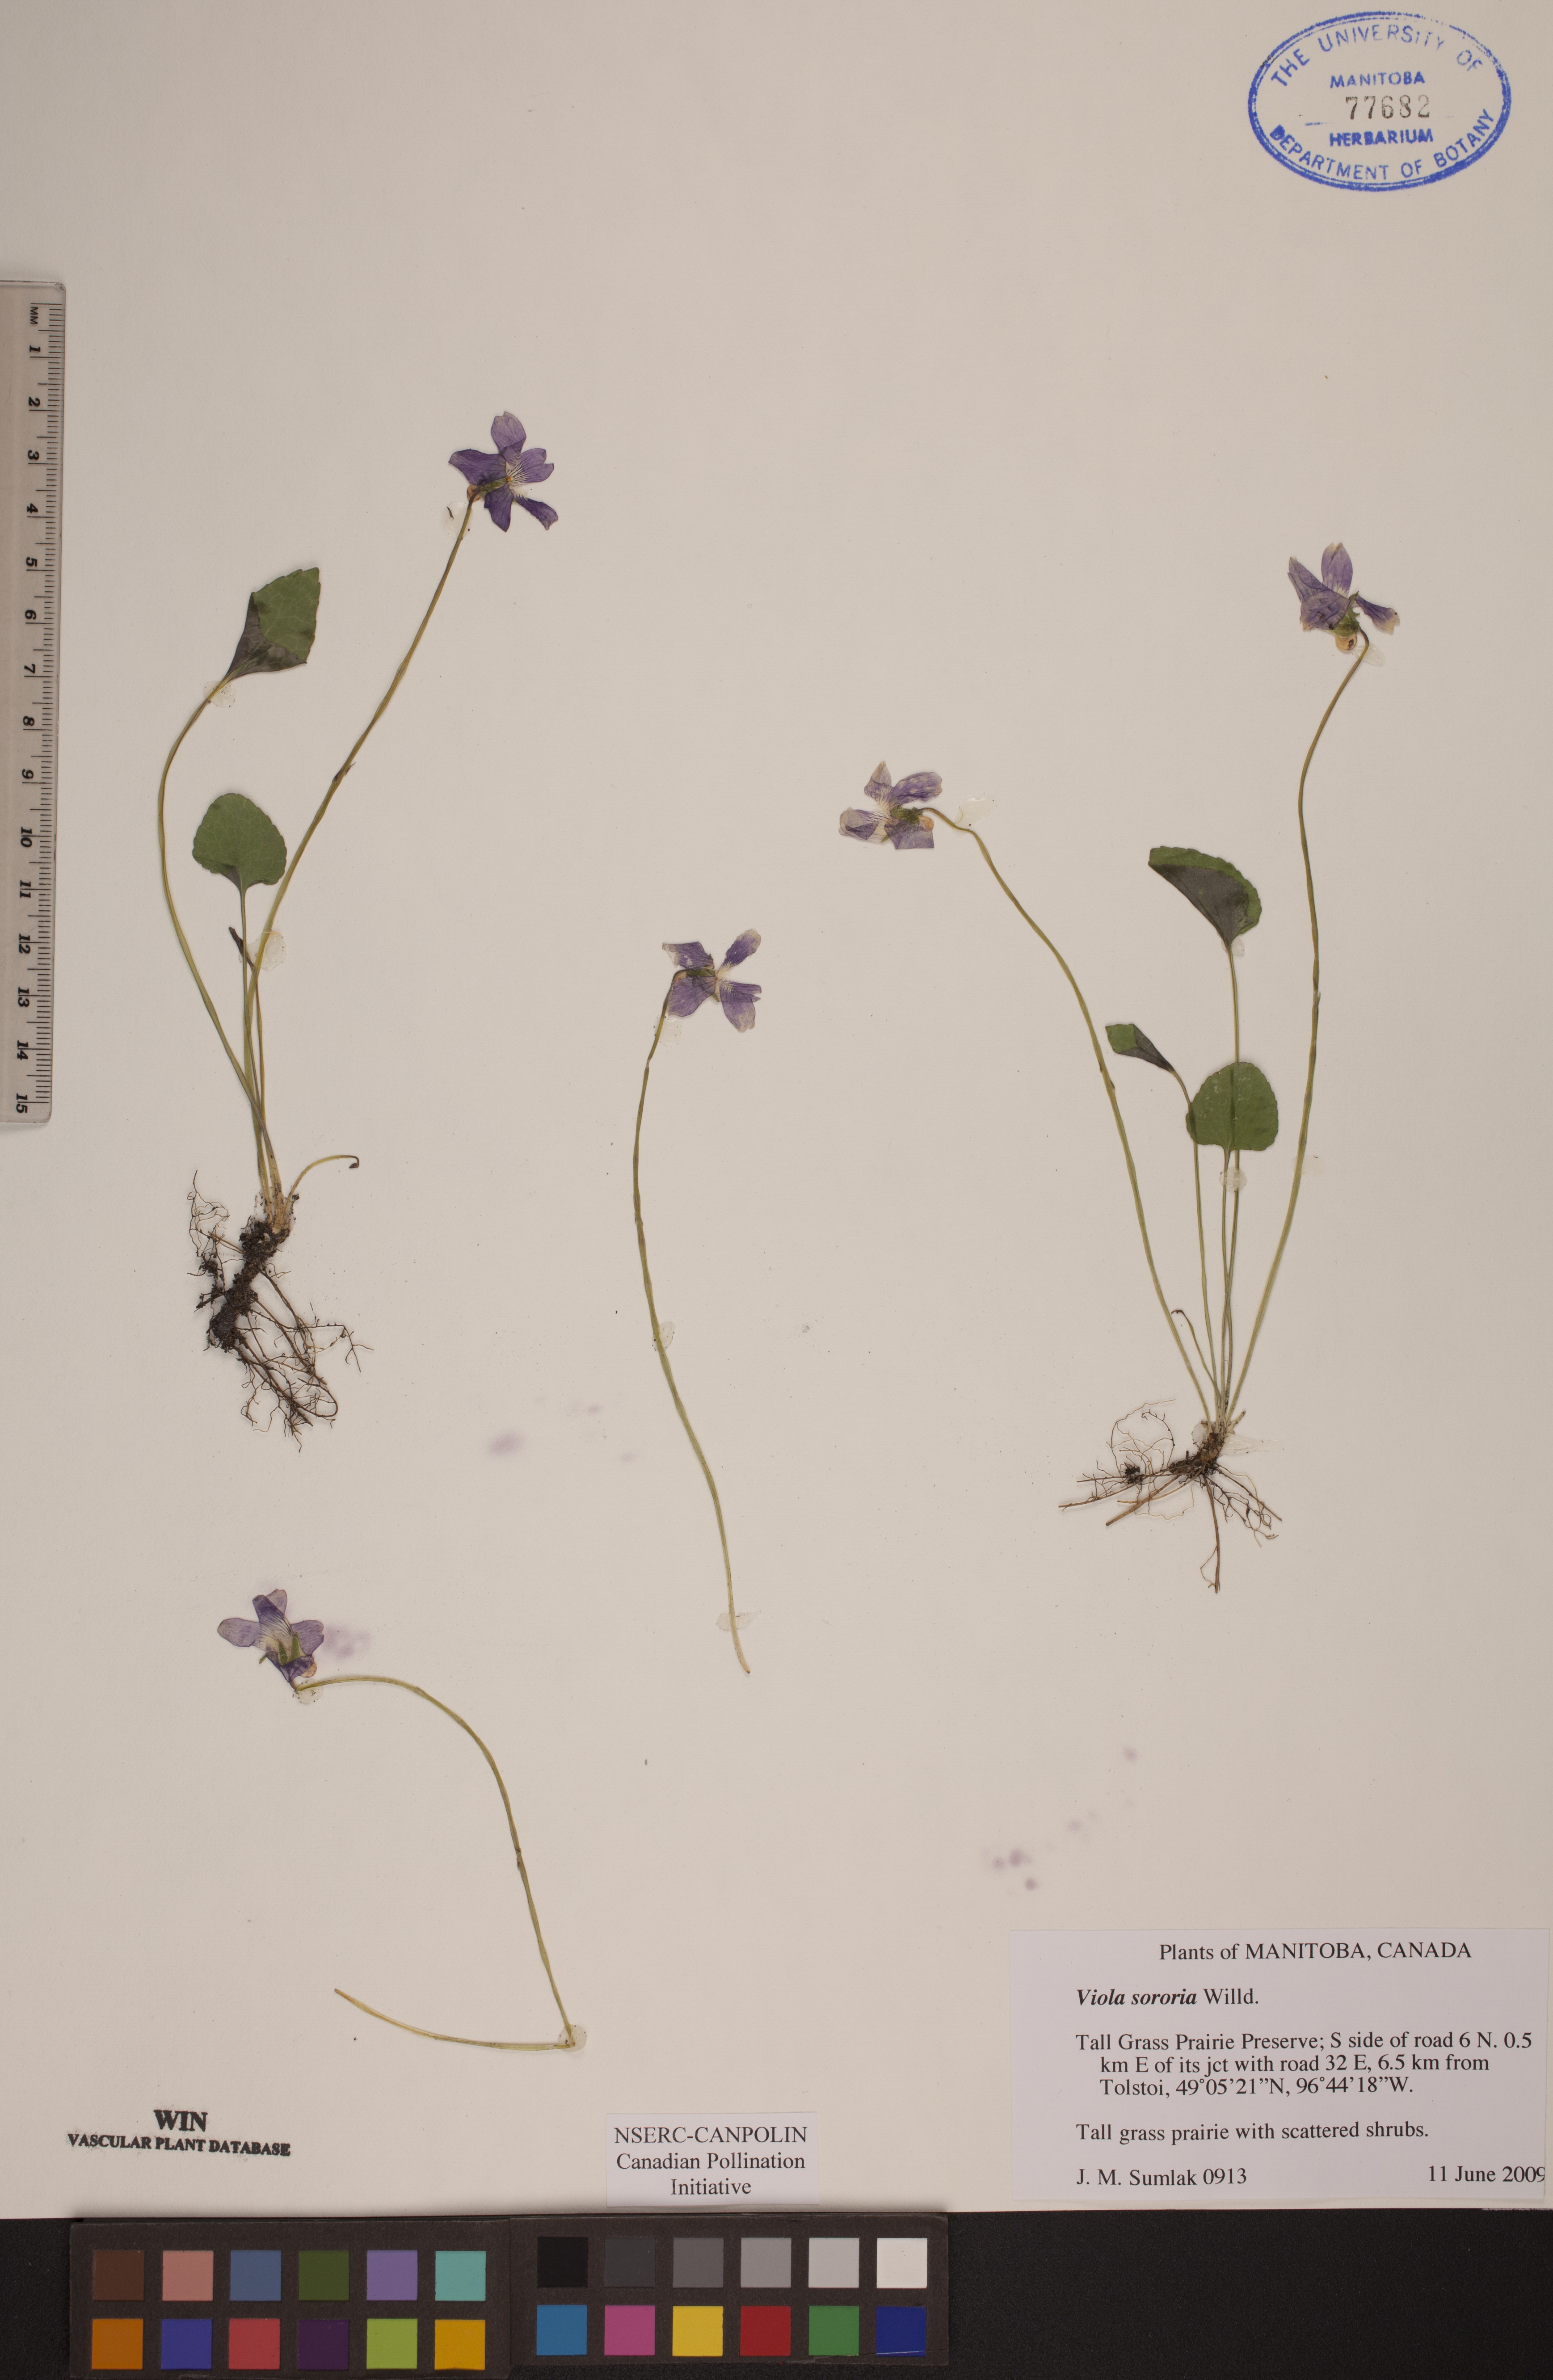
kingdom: Plantae
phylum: Tracheophyta
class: Magnoliopsida
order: Malpighiales
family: Violaceae
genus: Viola
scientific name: Viola sororia
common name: Dooryard violet
